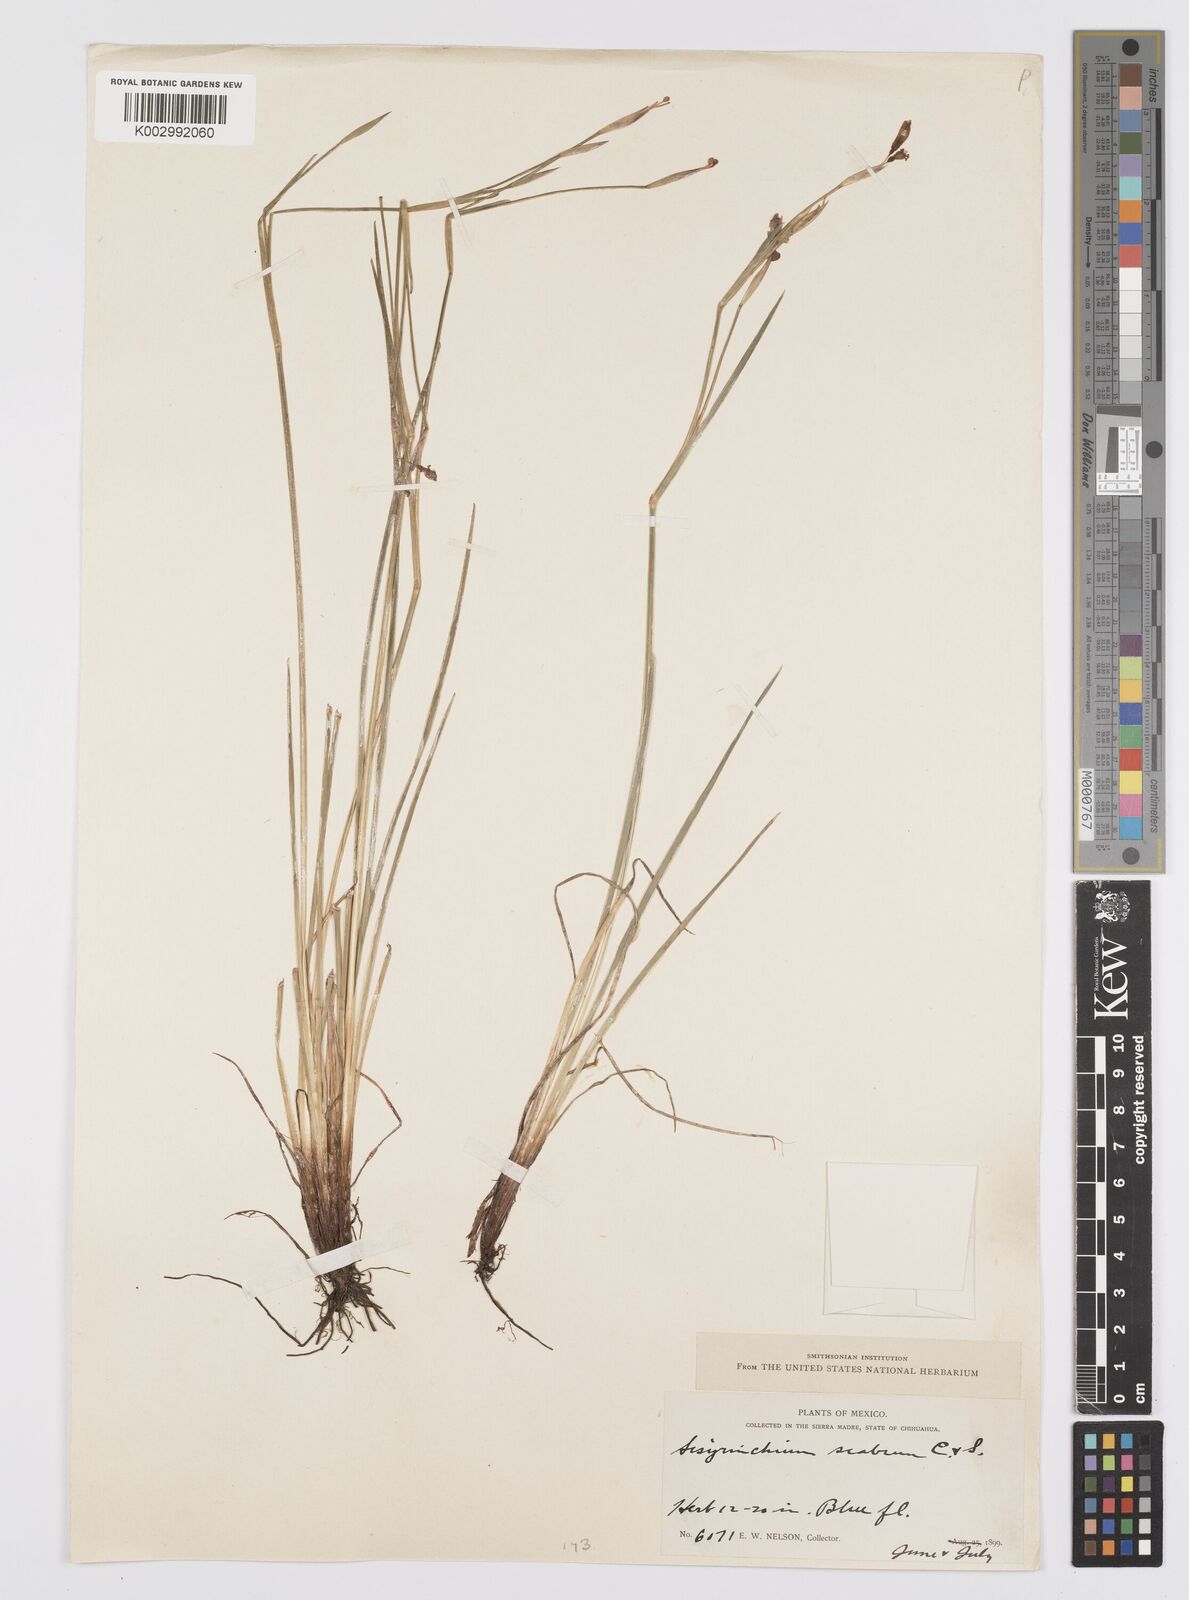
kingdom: Plantae
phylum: Tracheophyta
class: Liliopsida
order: Asparagales
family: Iridaceae
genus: Sisyrinchium
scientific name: Sisyrinchium scabrum
